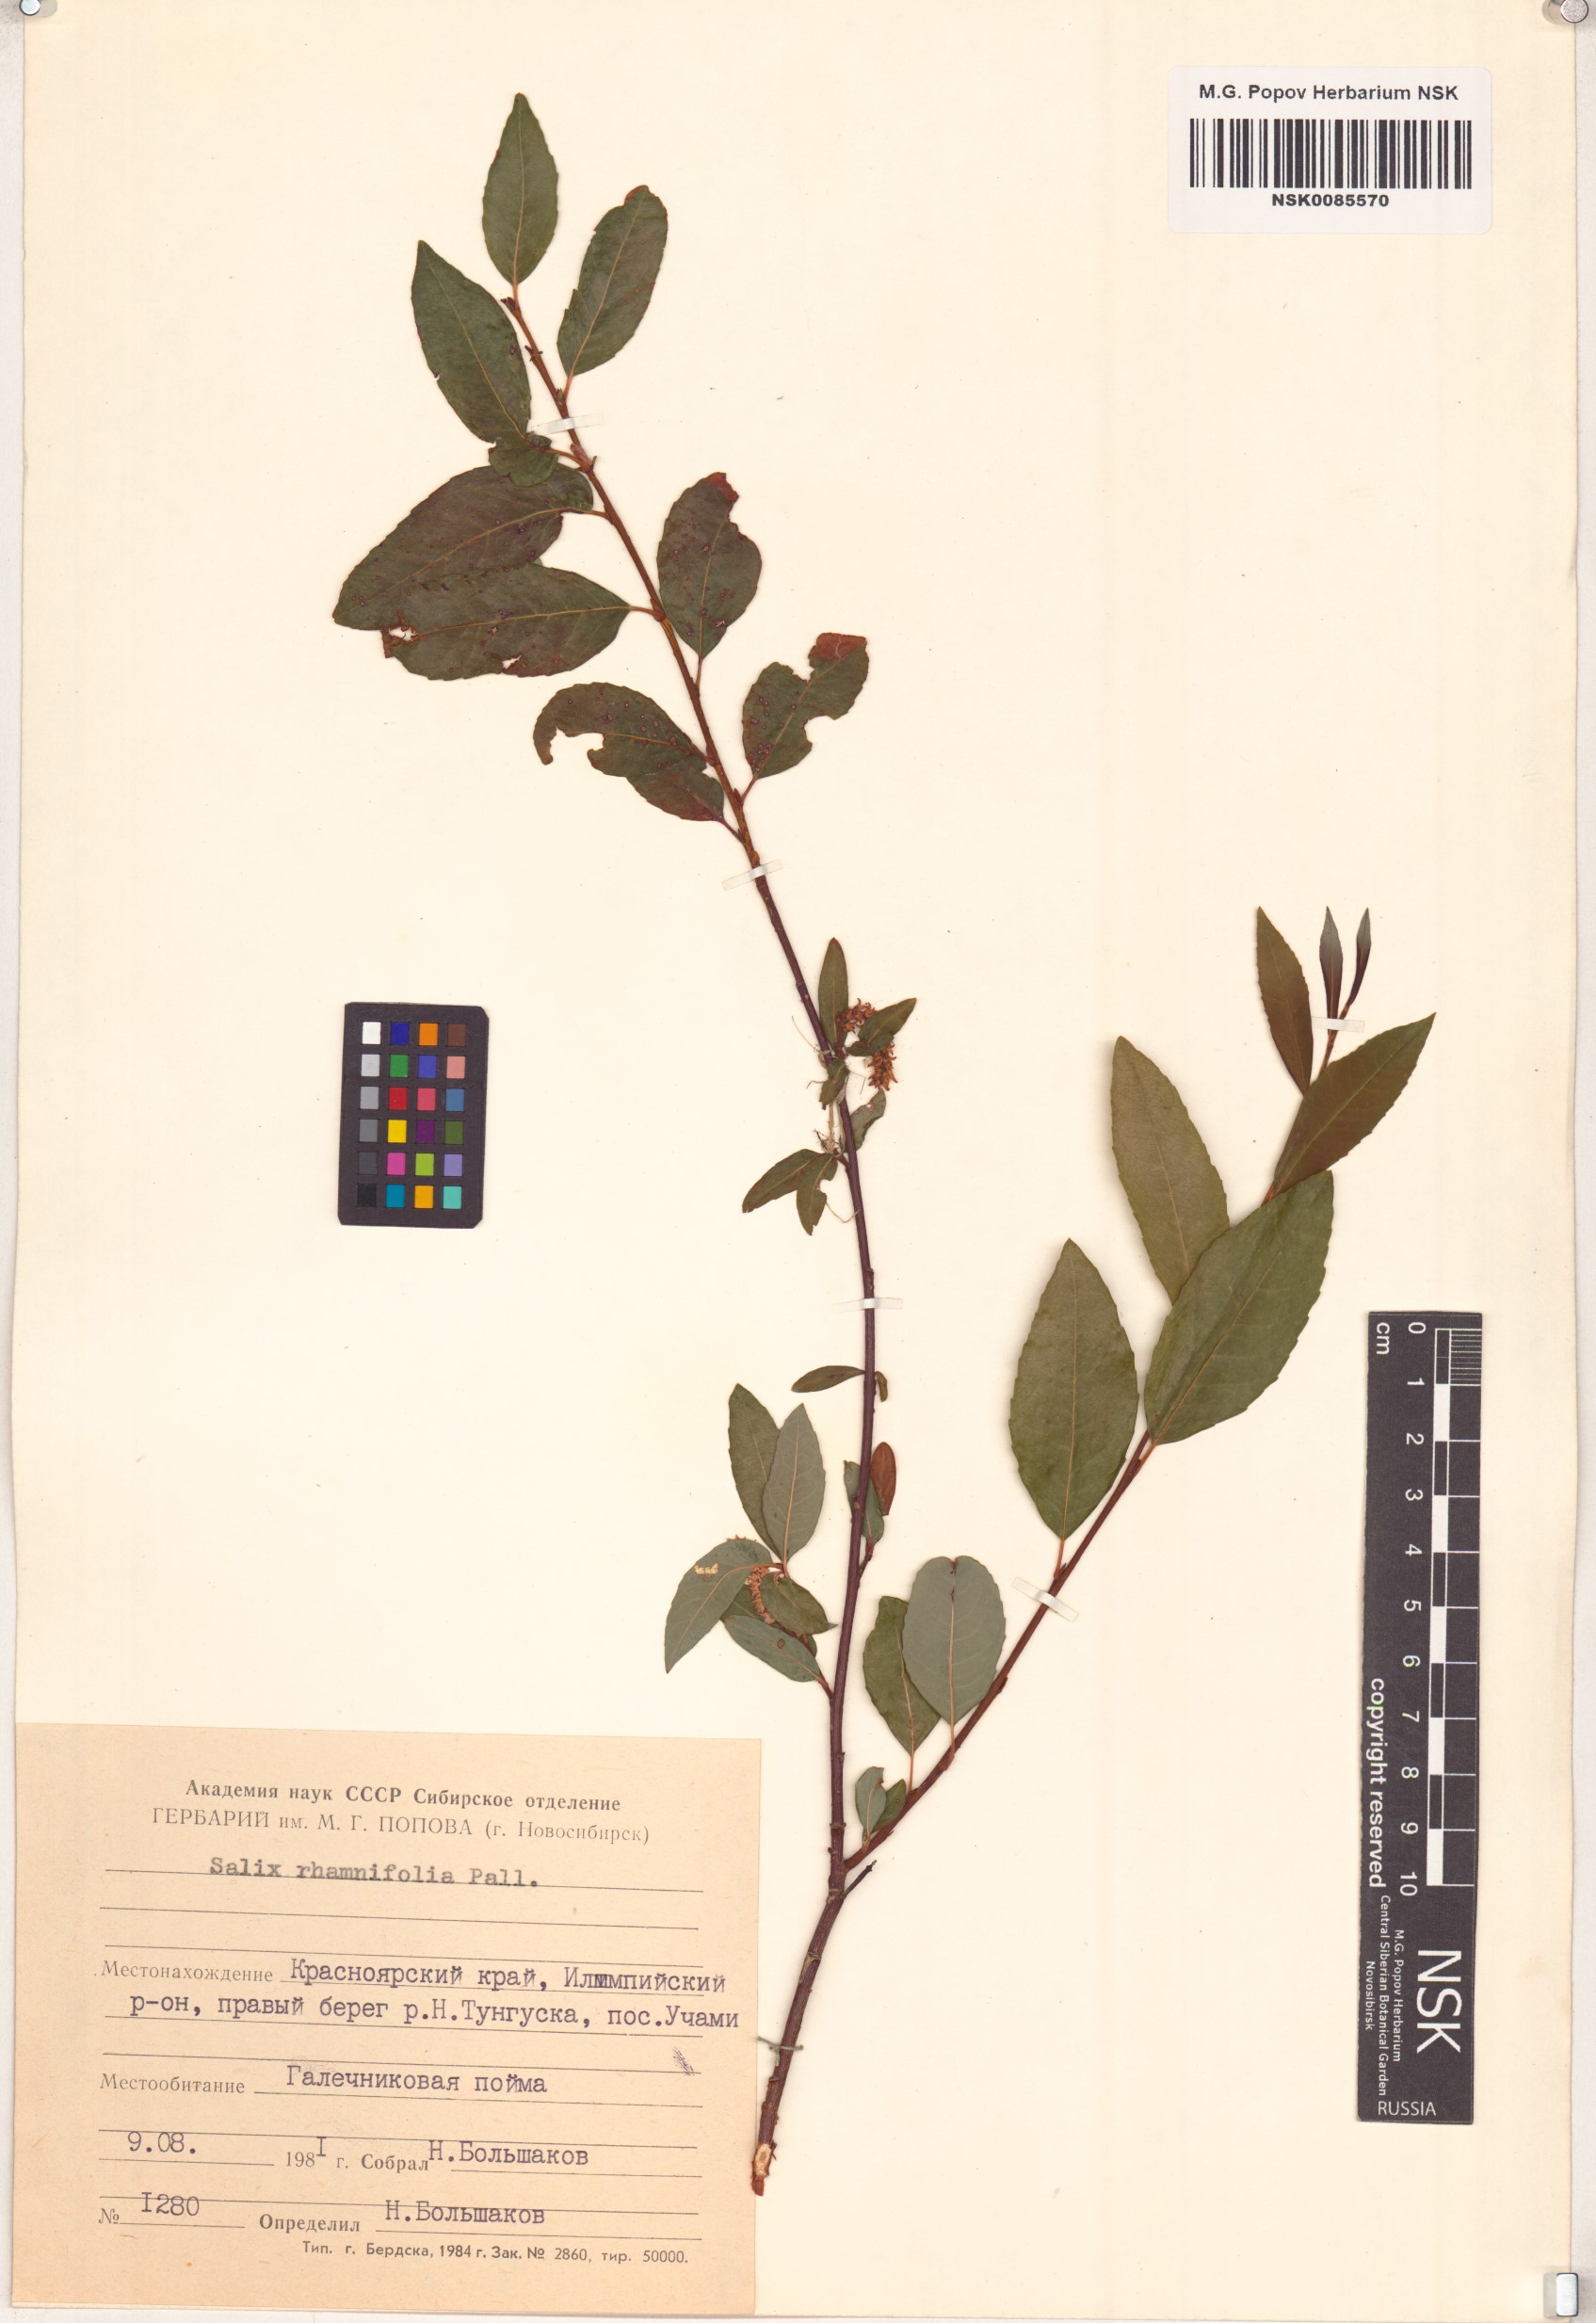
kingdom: Plantae
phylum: Tracheophyta
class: Magnoliopsida
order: Malpighiales
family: Salicaceae
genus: Salix
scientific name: Salix rhamnifolia
